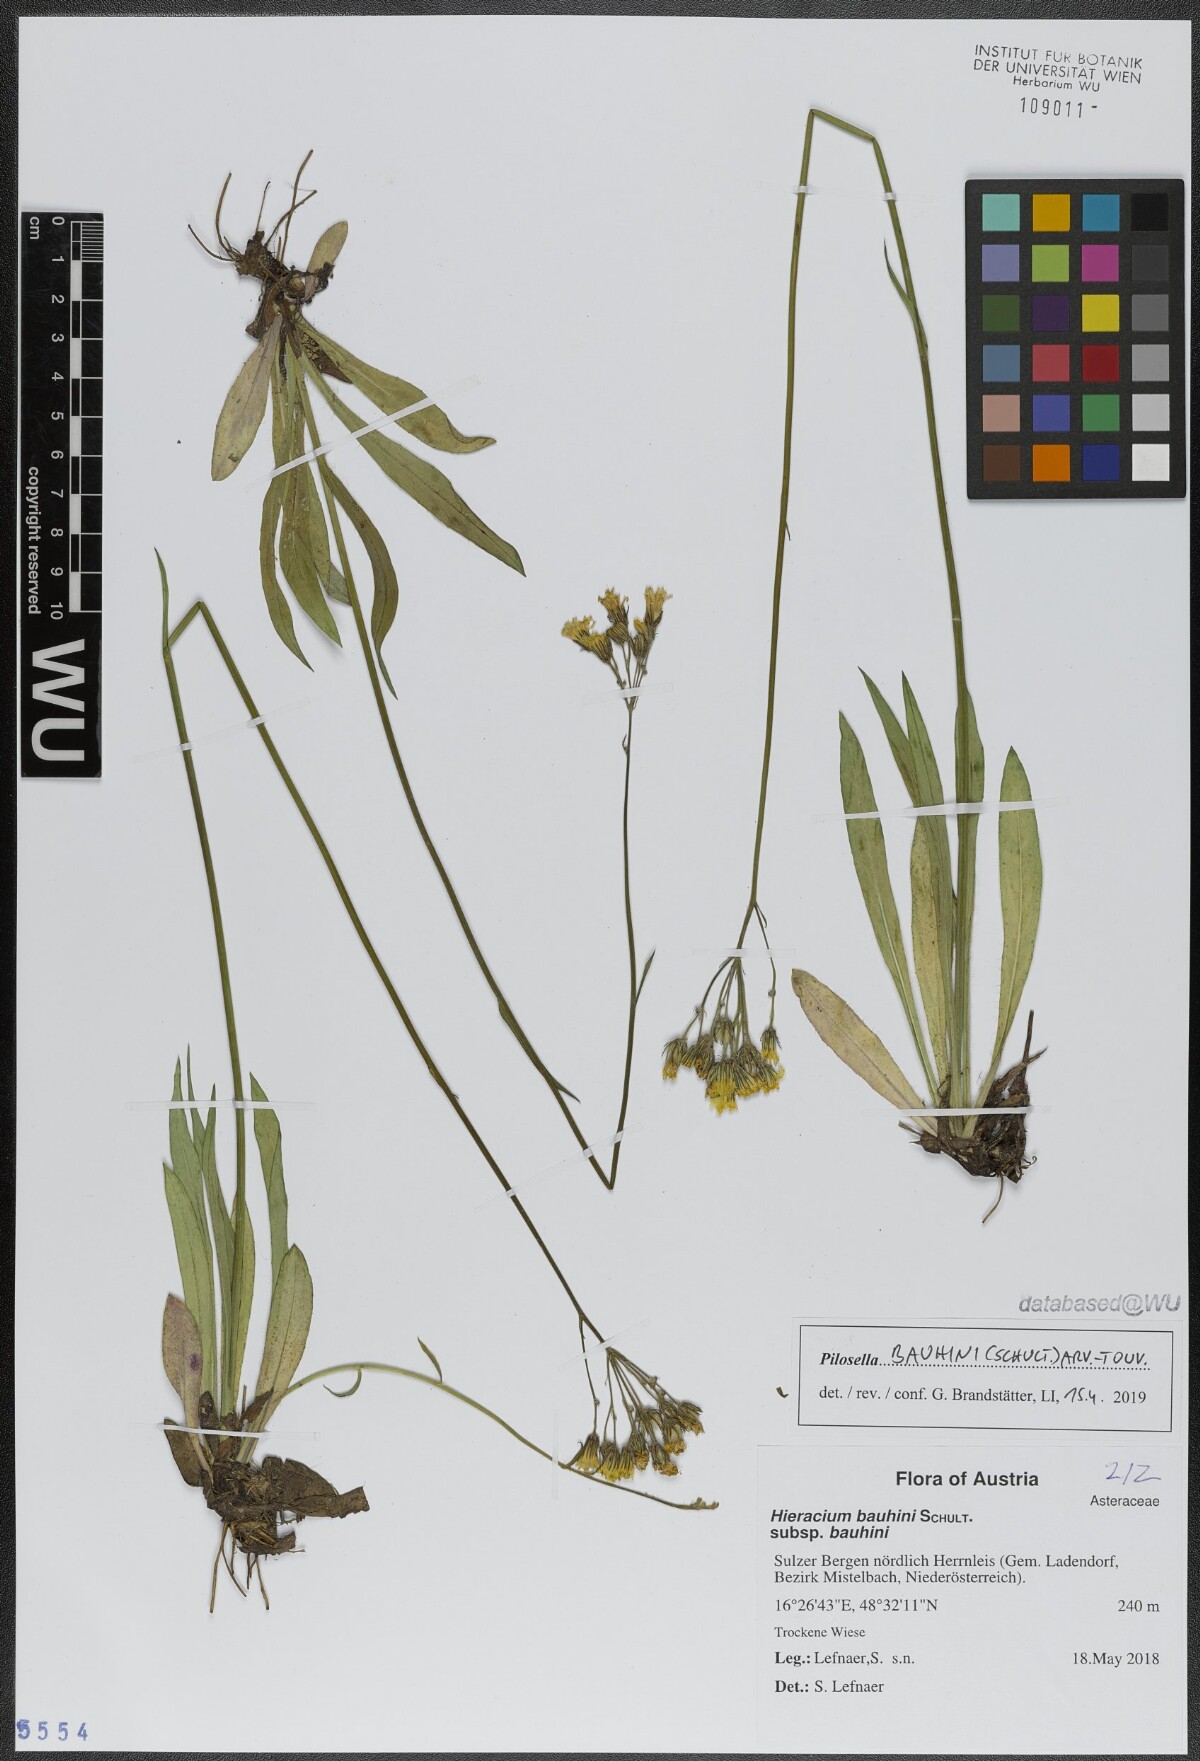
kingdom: Plantae
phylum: Tracheophyta
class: Magnoliopsida
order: Asterales
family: Asteraceae
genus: Pilosella
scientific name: Pilosella bauhini
